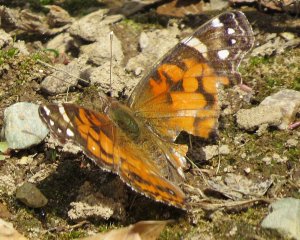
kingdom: Animalia
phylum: Arthropoda
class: Insecta
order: Lepidoptera
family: Nymphalidae
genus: Vanessa
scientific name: Vanessa virginiensis
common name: American Lady
